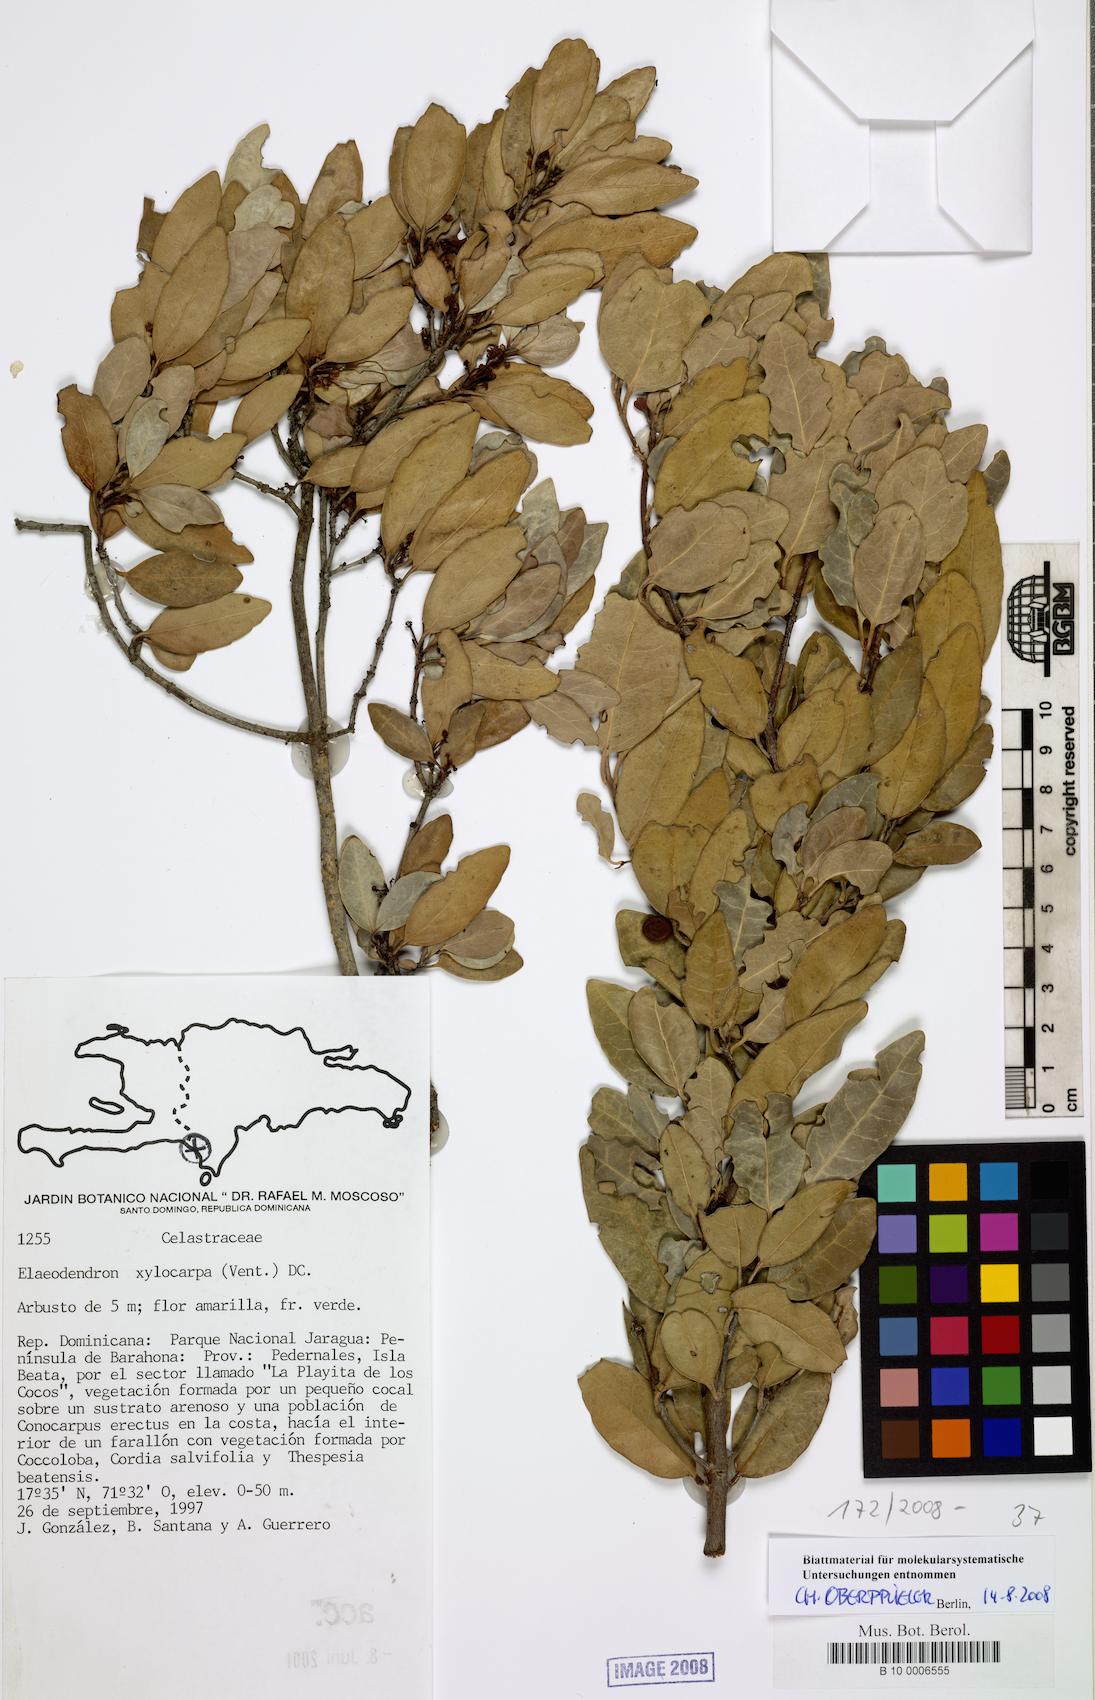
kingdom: Plantae
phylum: Tracheophyta
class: Magnoliopsida
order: Celastrales
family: Celastraceae
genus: Elaeodendron
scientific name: Elaeodendron xylocarpum
